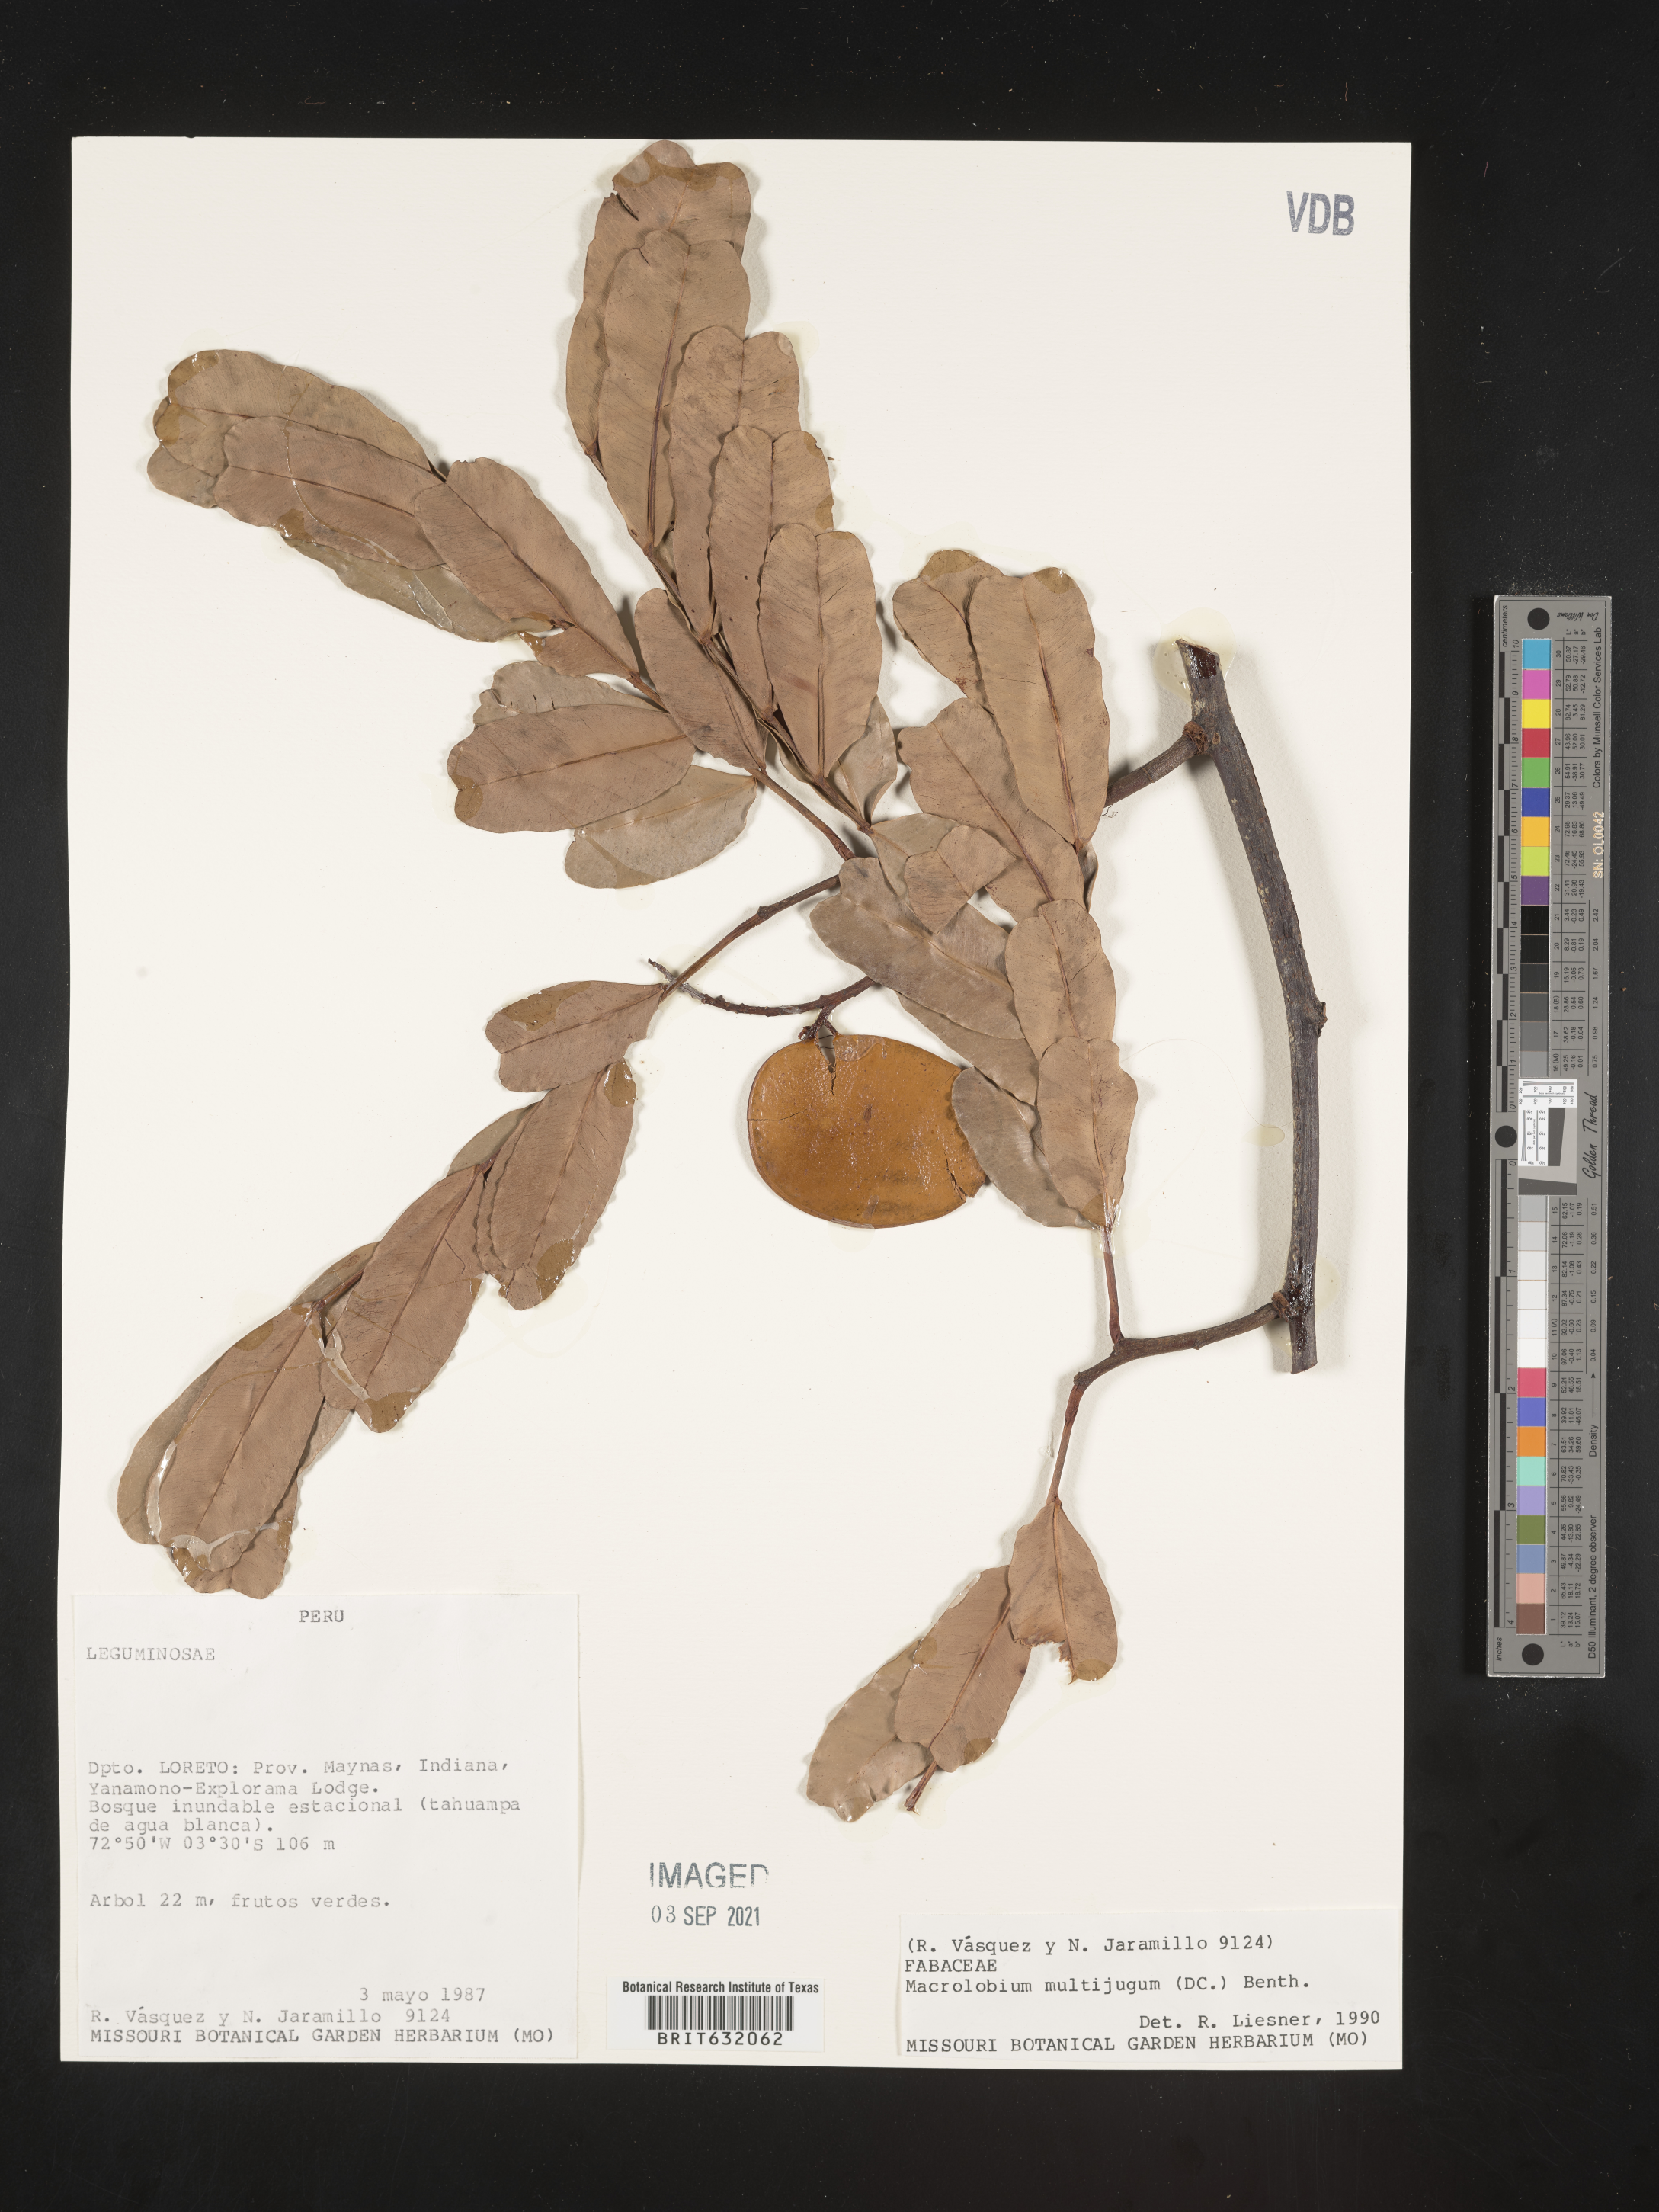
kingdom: Plantae
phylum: Tracheophyta
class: Magnoliopsida
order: Fabales
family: Fabaceae
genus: Macrolobium
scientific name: Macrolobium
